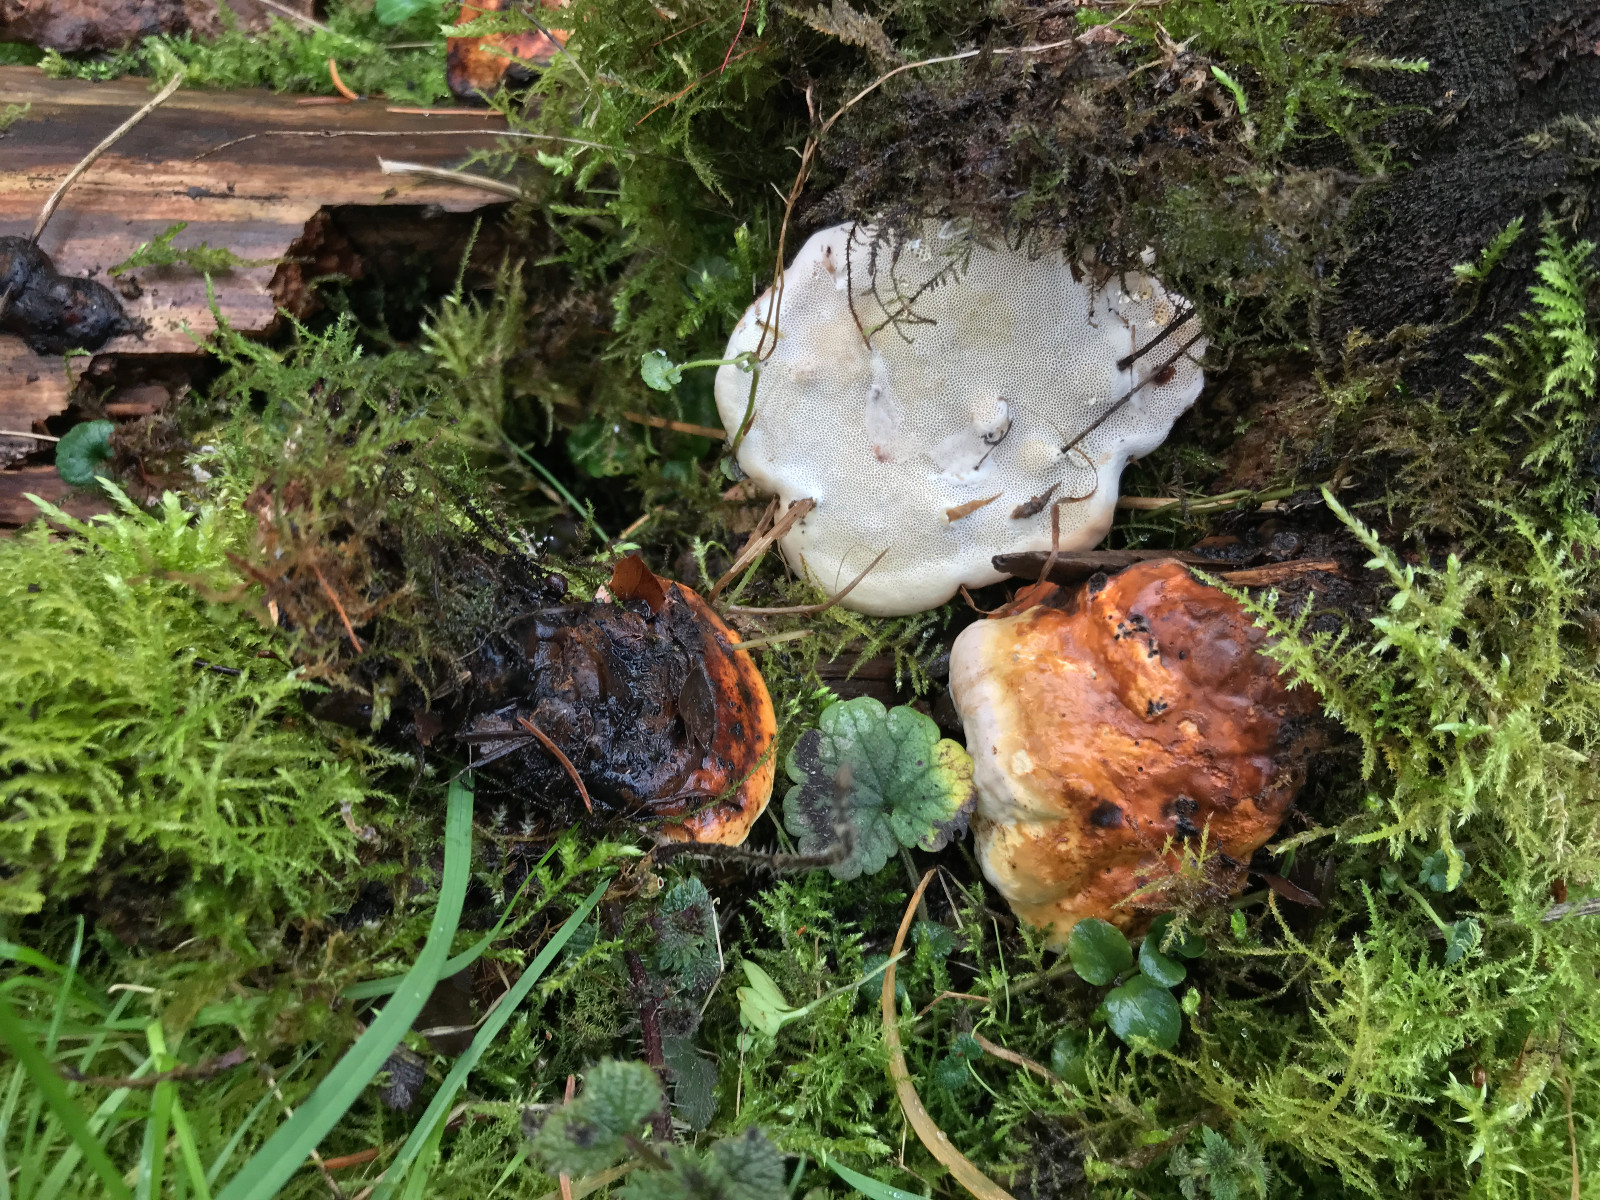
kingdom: Fungi
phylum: Basidiomycota
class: Agaricomycetes
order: Polyporales
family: Fomitopsidaceae
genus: Fomitopsis
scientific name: Fomitopsis pinicola
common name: randbæltet hovporesvamp
